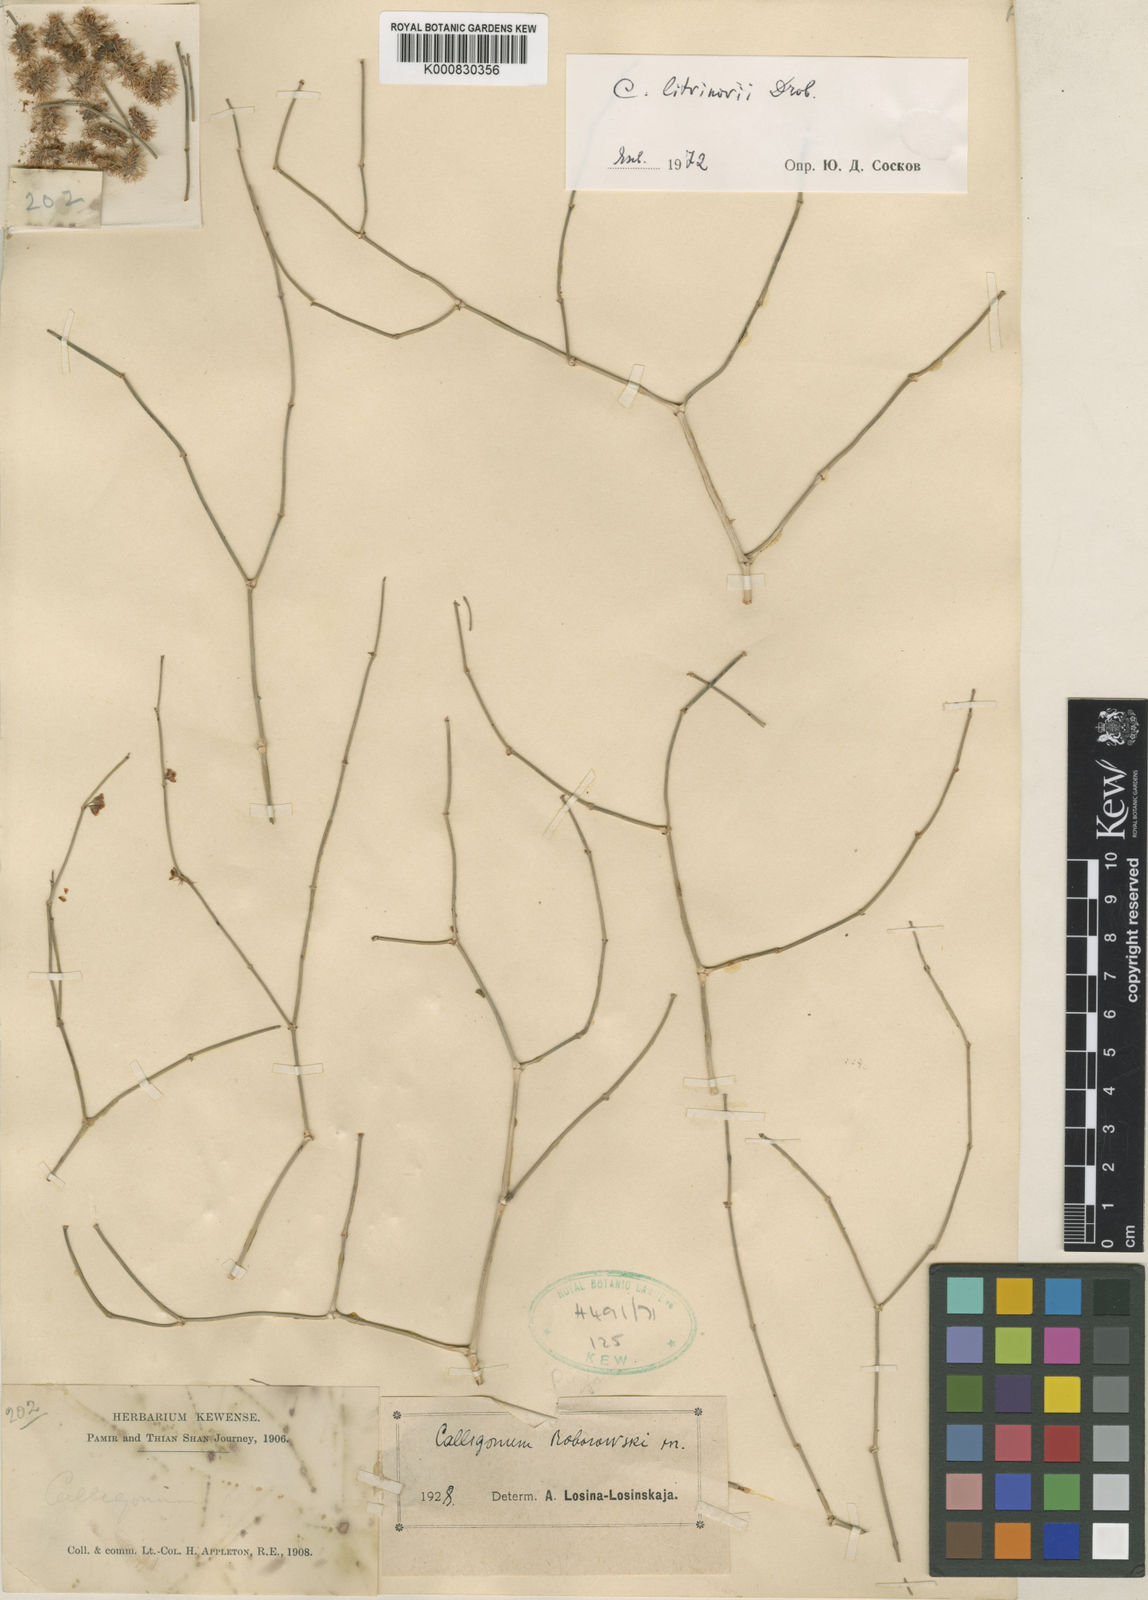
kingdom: Plantae
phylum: Tracheophyta
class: Magnoliopsida
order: Caryophyllales
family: Polygonaceae
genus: Calligonum
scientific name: Calligonum litwinowii
